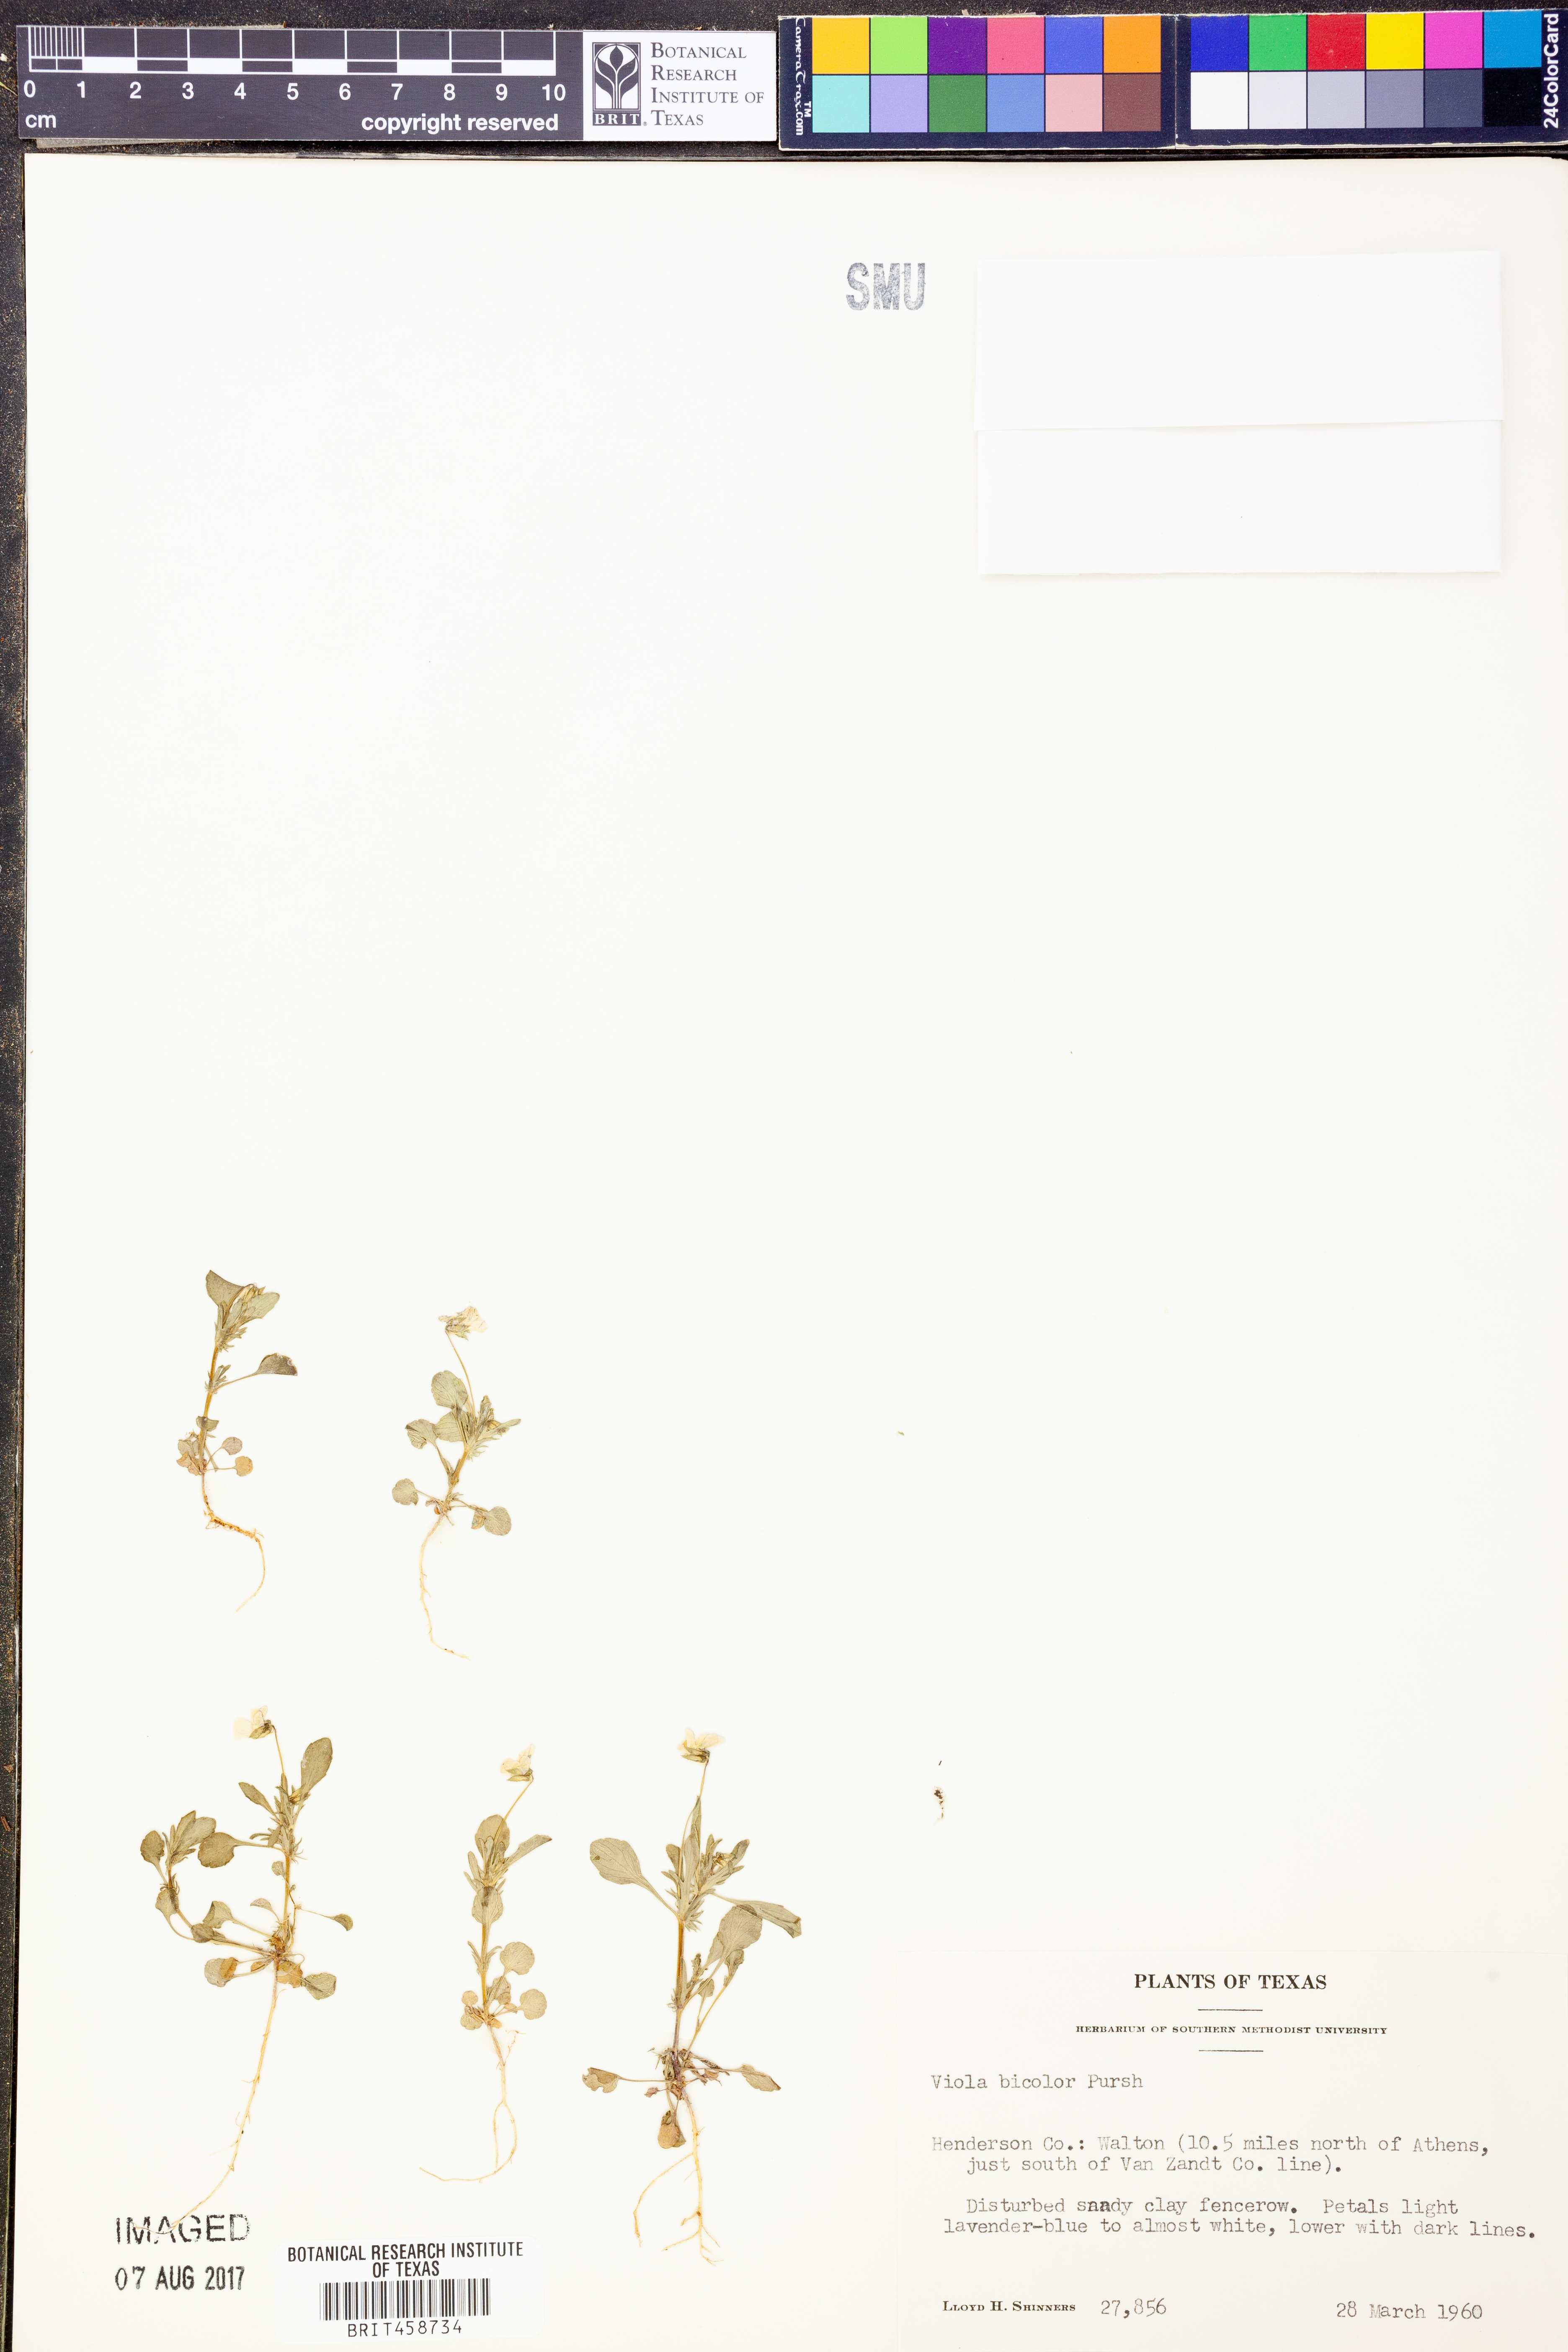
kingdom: Plantae
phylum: Tracheophyta
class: Magnoliopsida
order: Malpighiales
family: Violaceae
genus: Viola
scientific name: Viola rafinesquei
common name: American field pansy
